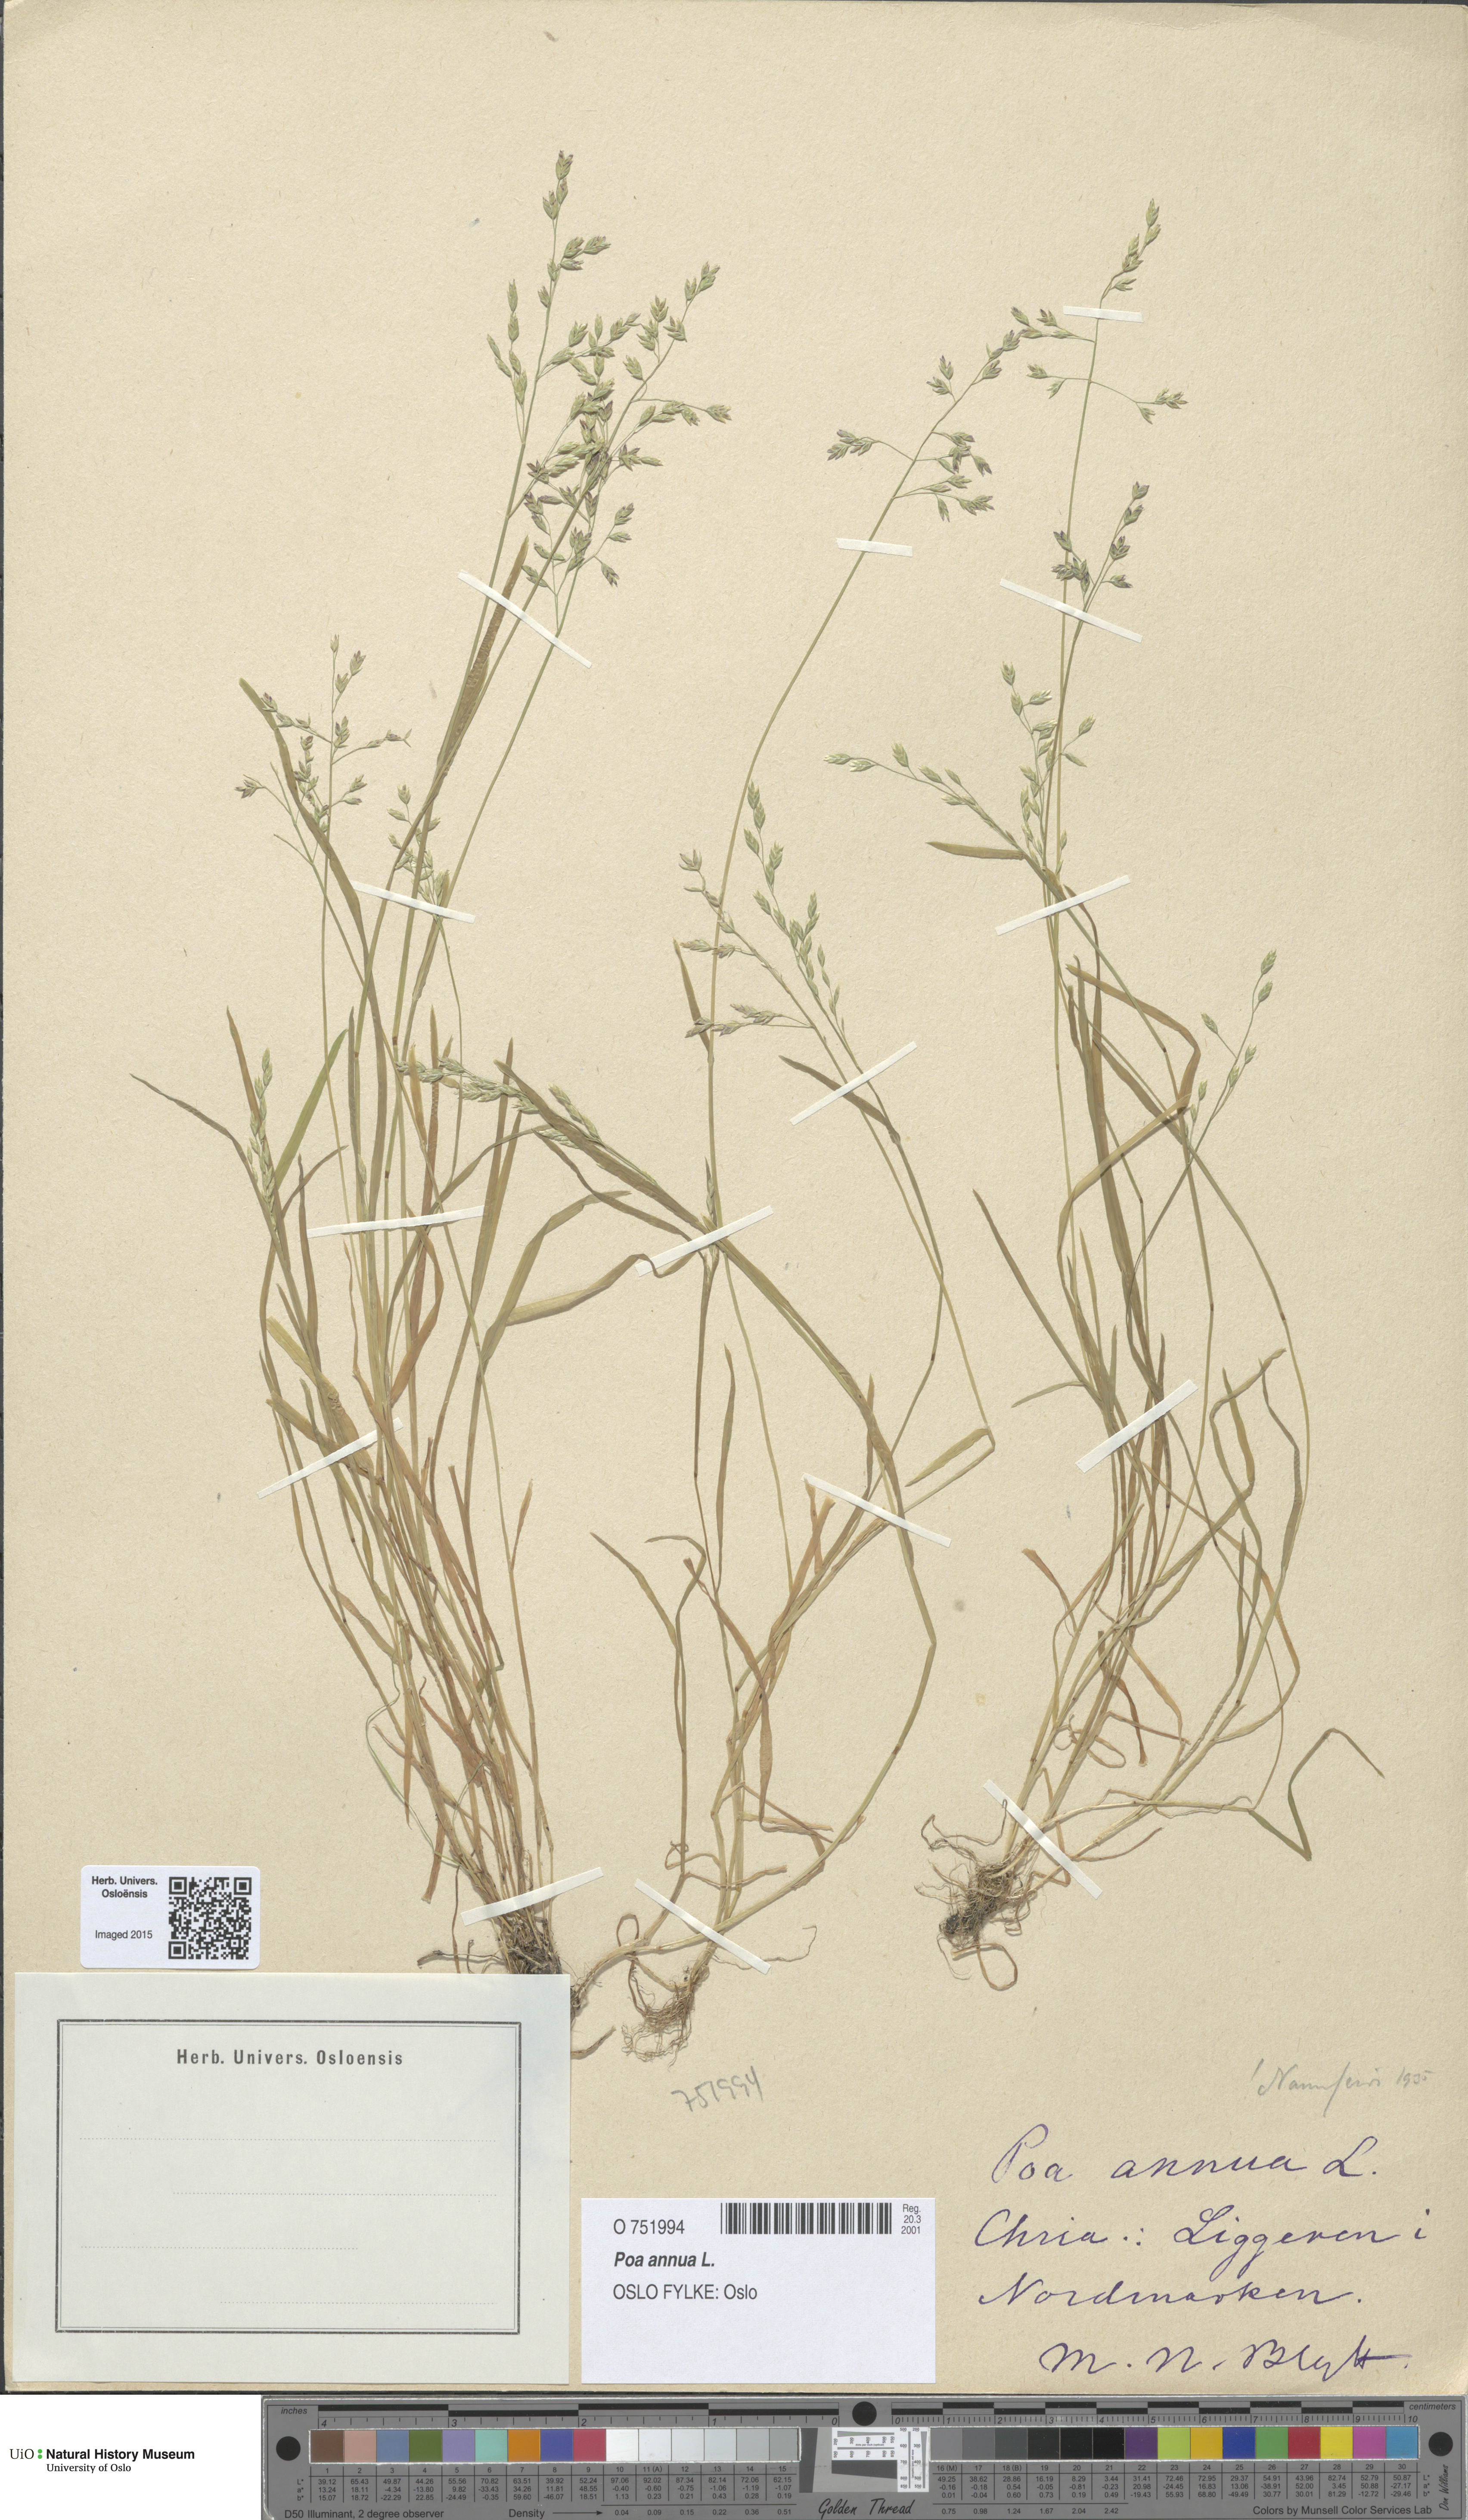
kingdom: Plantae
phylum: Tracheophyta
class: Liliopsida
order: Poales
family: Poaceae
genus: Poa
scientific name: Poa annua
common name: Annual bluegrass
